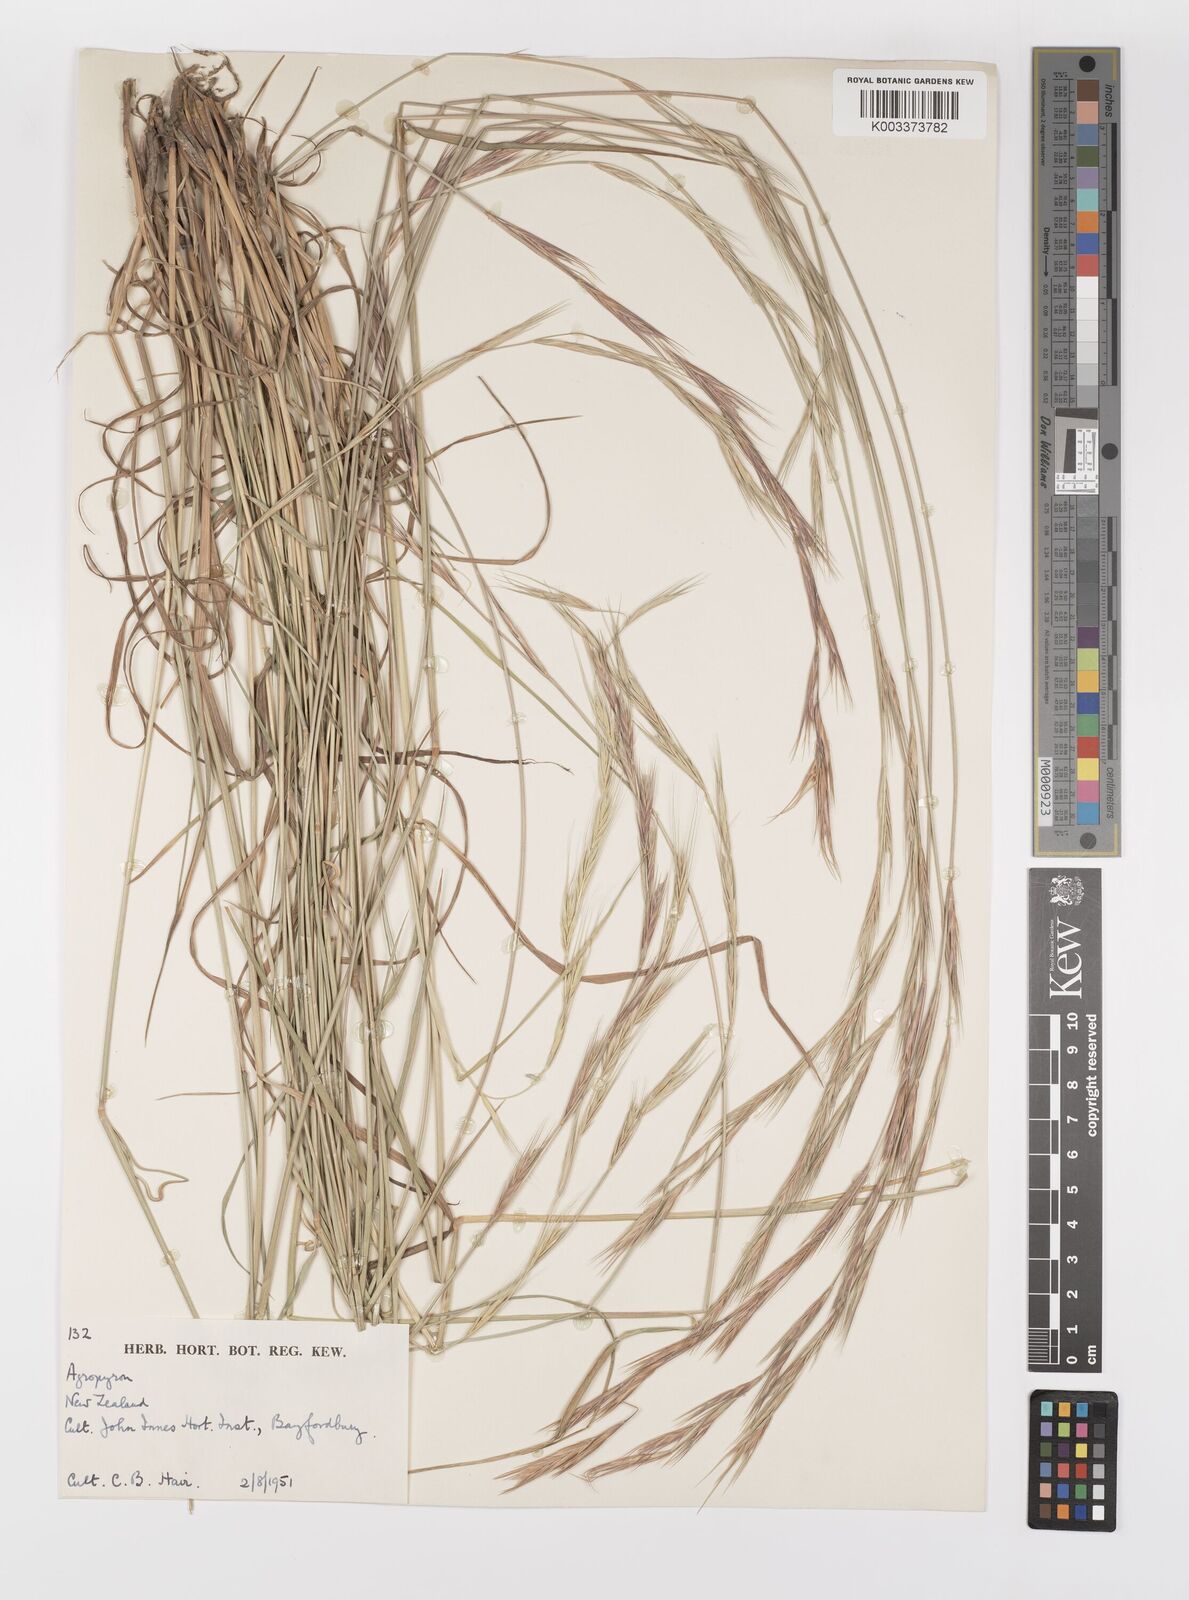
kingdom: Plantae
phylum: Tracheophyta
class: Liliopsida
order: Poales
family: Poaceae
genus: Elymus
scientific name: Elymus
